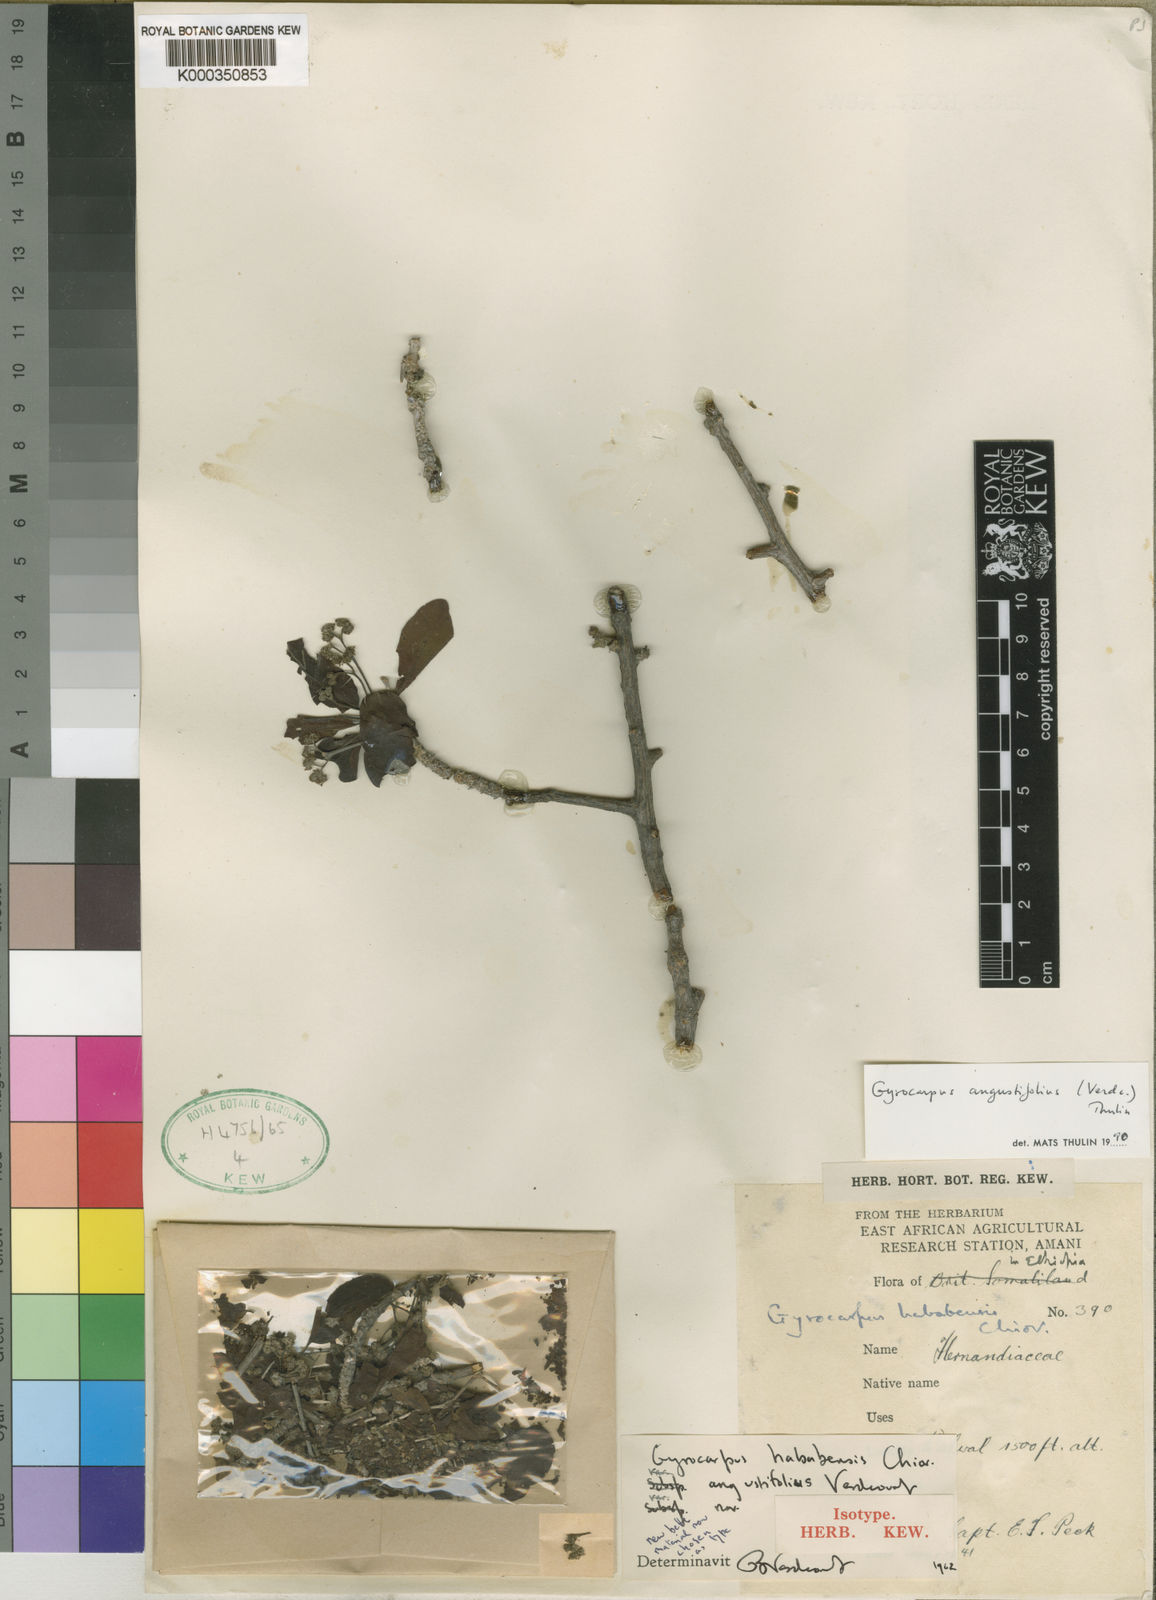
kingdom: Plantae
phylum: Tracheophyta
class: Magnoliopsida
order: Laurales
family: Hernandiaceae
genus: Gyrocarpus
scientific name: Gyrocarpus angustifolius
